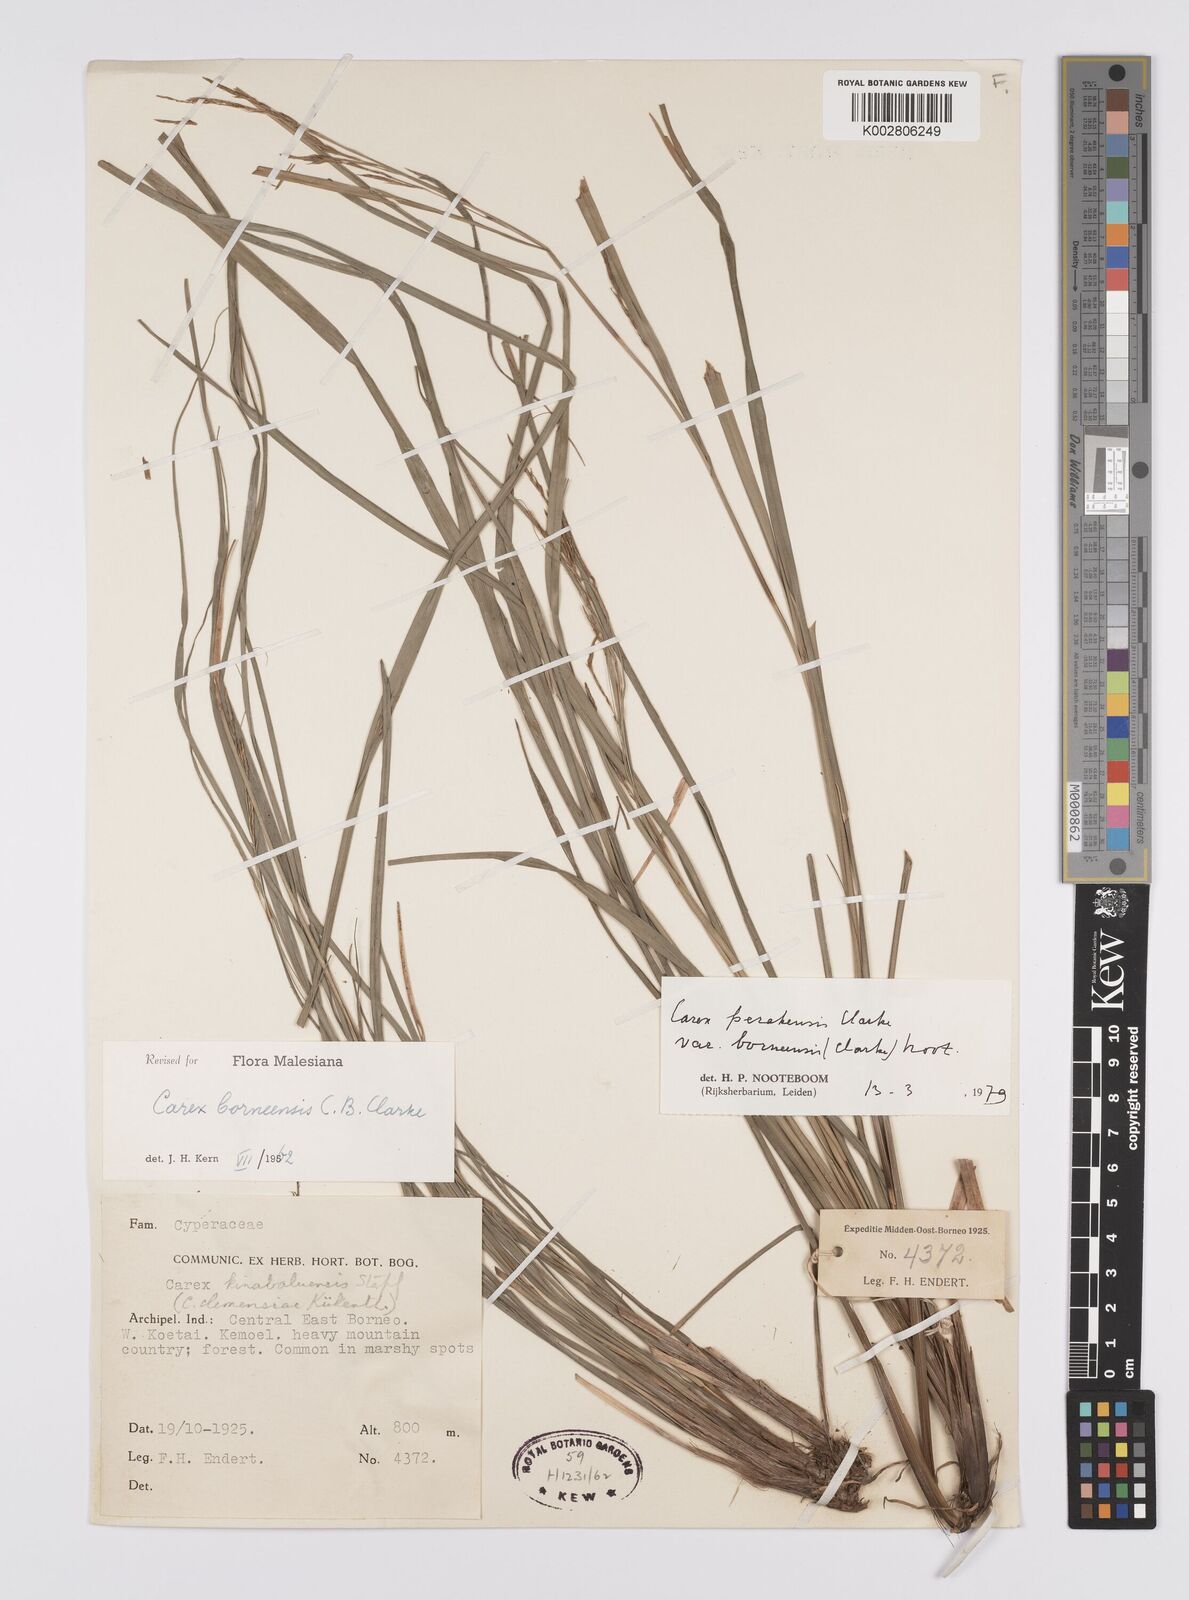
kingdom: Plantae
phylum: Tracheophyta
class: Liliopsida
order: Poales
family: Cyperaceae
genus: Carex
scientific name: Carex perakensis
